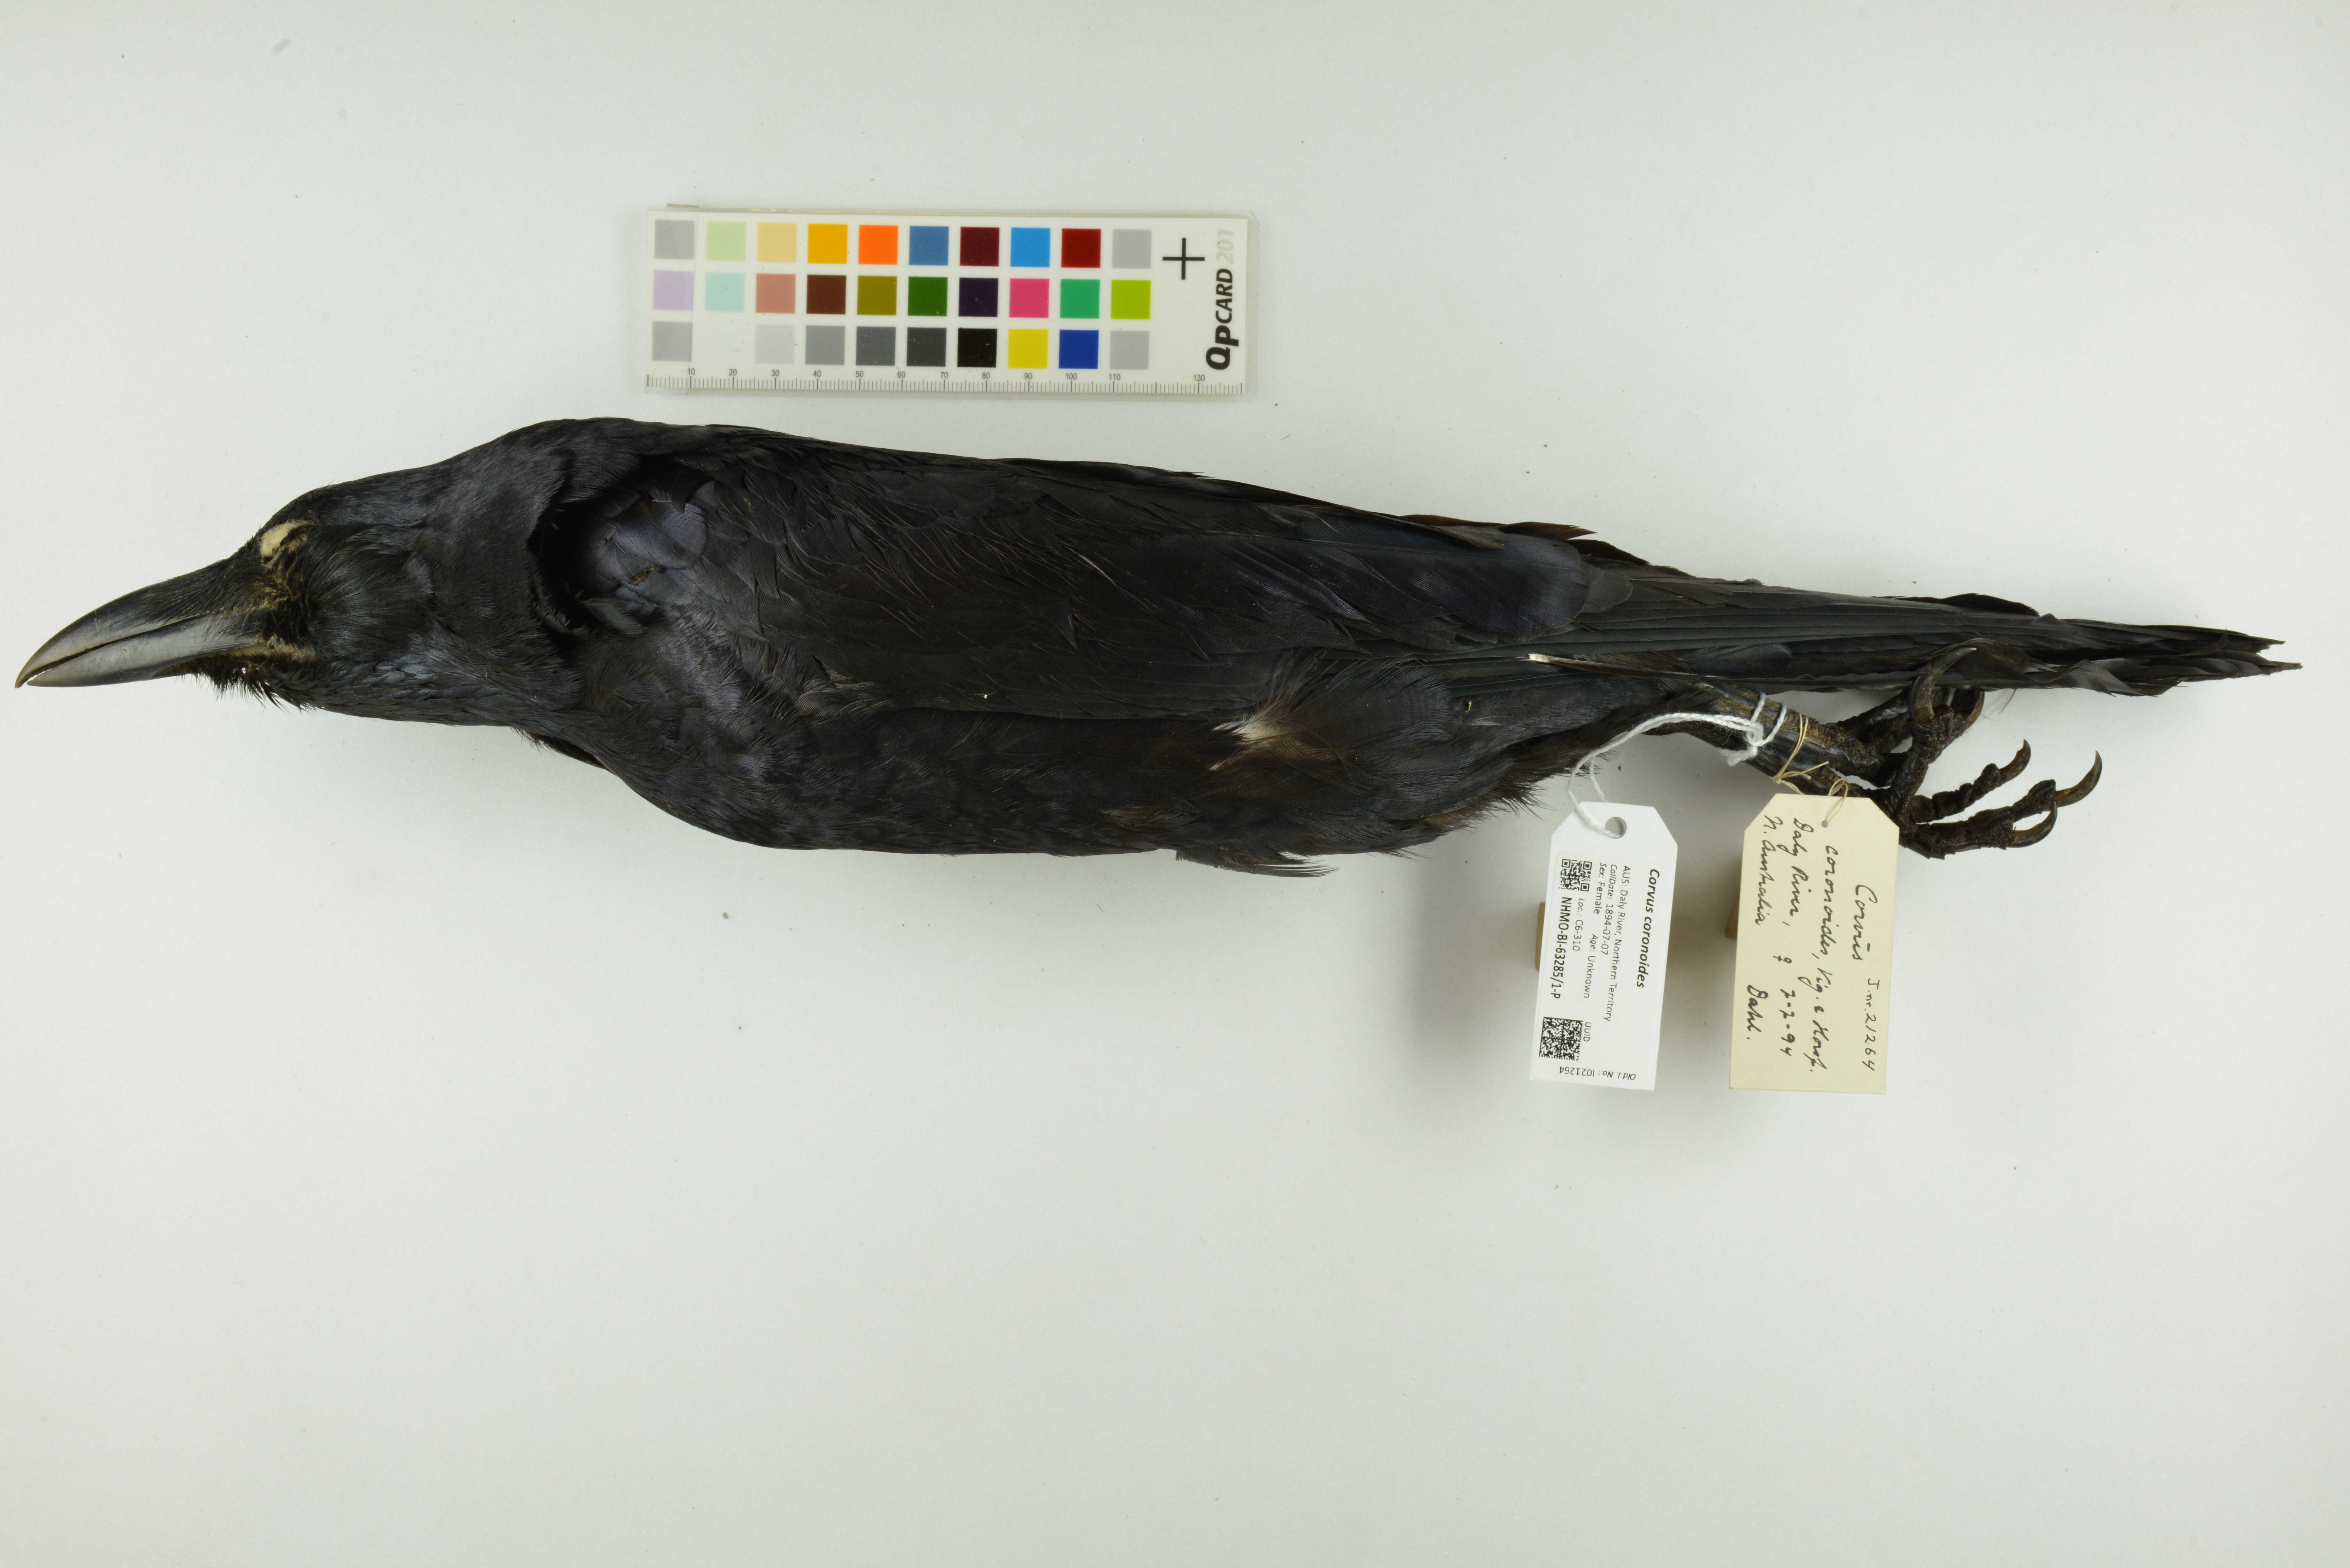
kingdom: Animalia
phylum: Chordata
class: Aves
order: Passeriformes
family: Corvidae
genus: Corvus
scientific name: Corvus coronoides
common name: Australian raven
